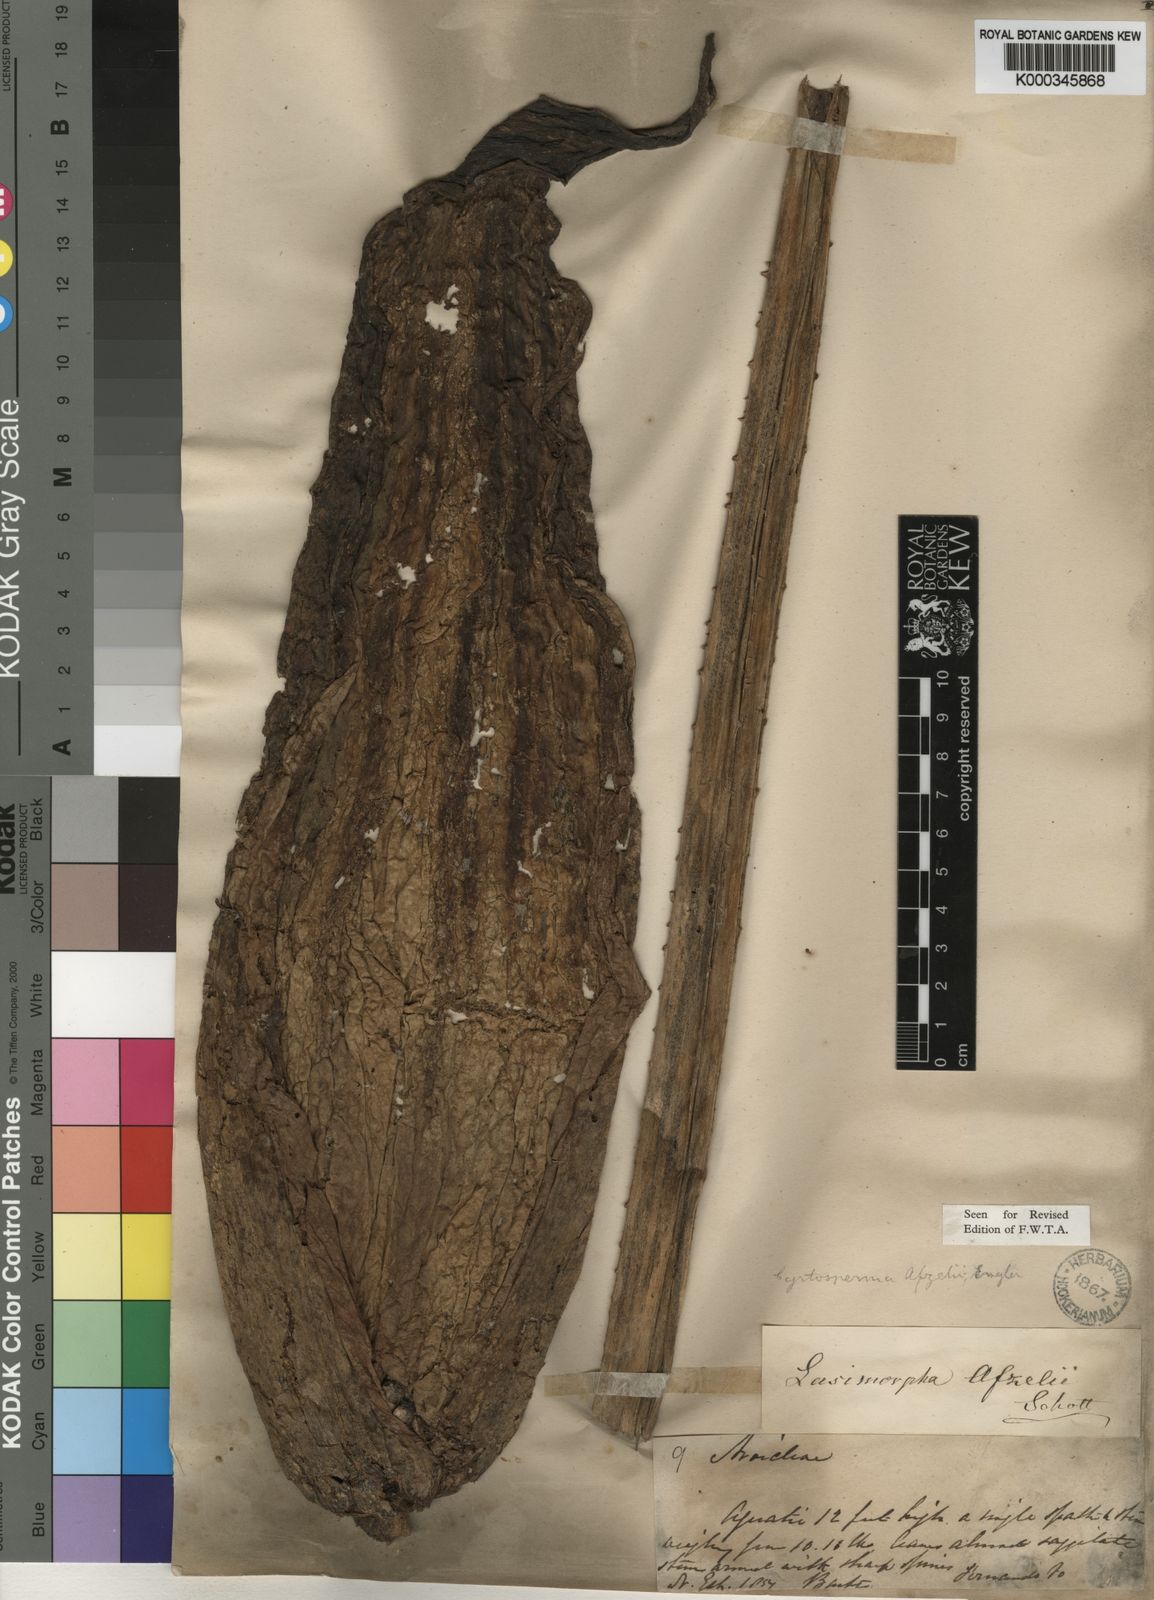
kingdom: Plantae
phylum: Tracheophyta
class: Liliopsida
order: Alismatales
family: Araceae
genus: Lasimorpha
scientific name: Lasimorpha senegalensis
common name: Swamp arum
